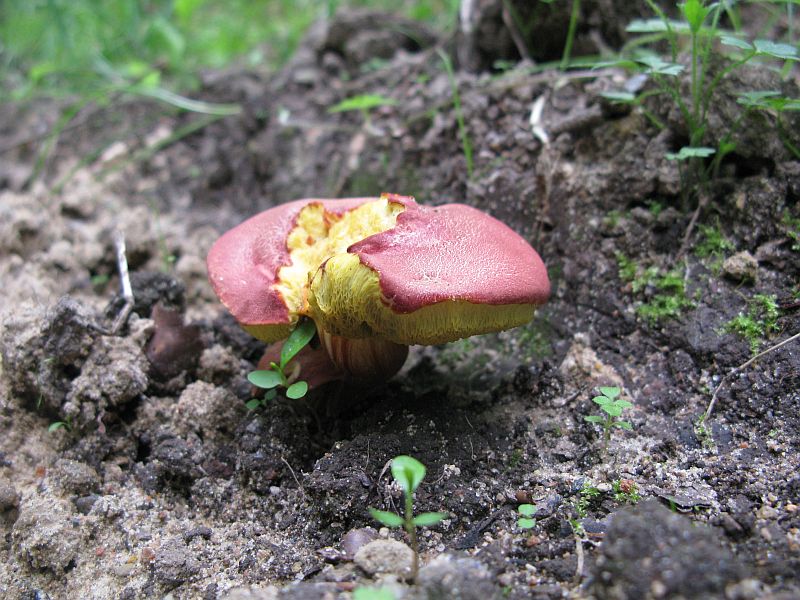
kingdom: Fungi
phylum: Basidiomycota
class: Agaricomycetes
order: Boletales
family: Boletaceae
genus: Hortiboletus
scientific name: Hortiboletus rubellus
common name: blodrød rørhat
